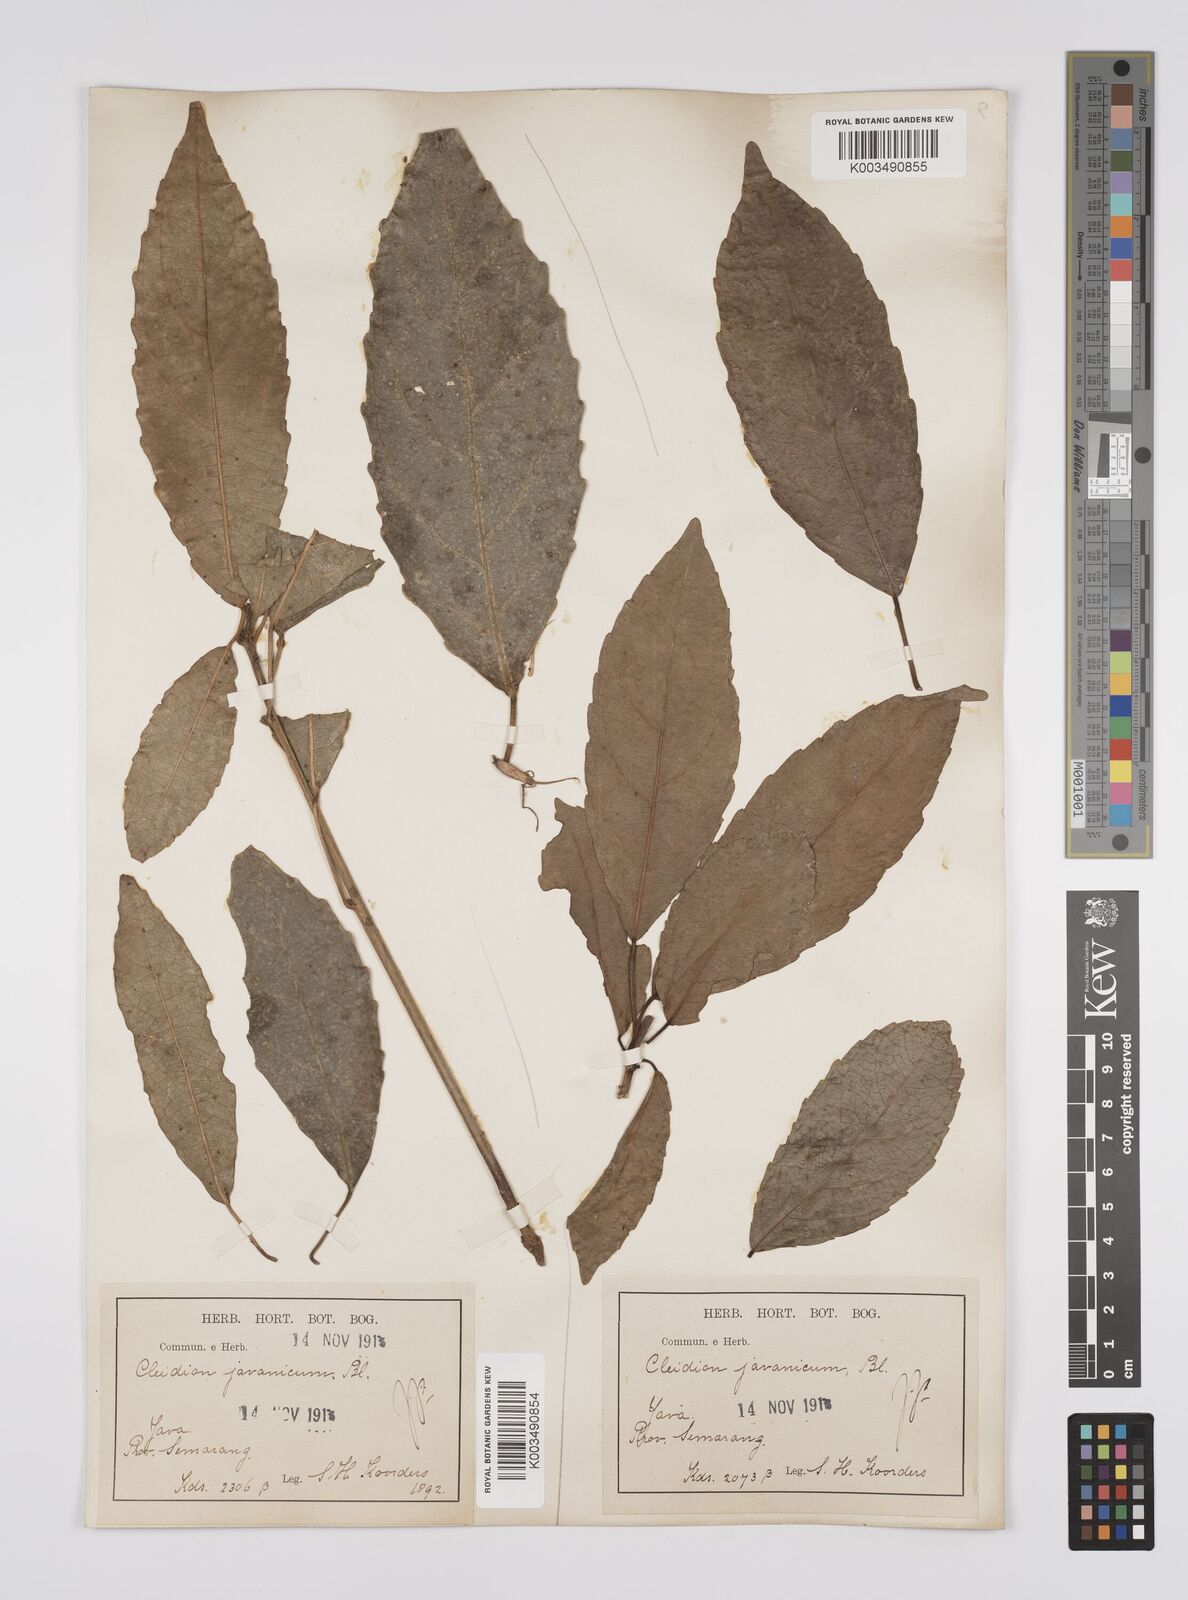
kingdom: Plantae
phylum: Tracheophyta
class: Magnoliopsida
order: Malpighiales
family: Euphorbiaceae
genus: Acalypha
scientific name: Acalypha spiciflora
